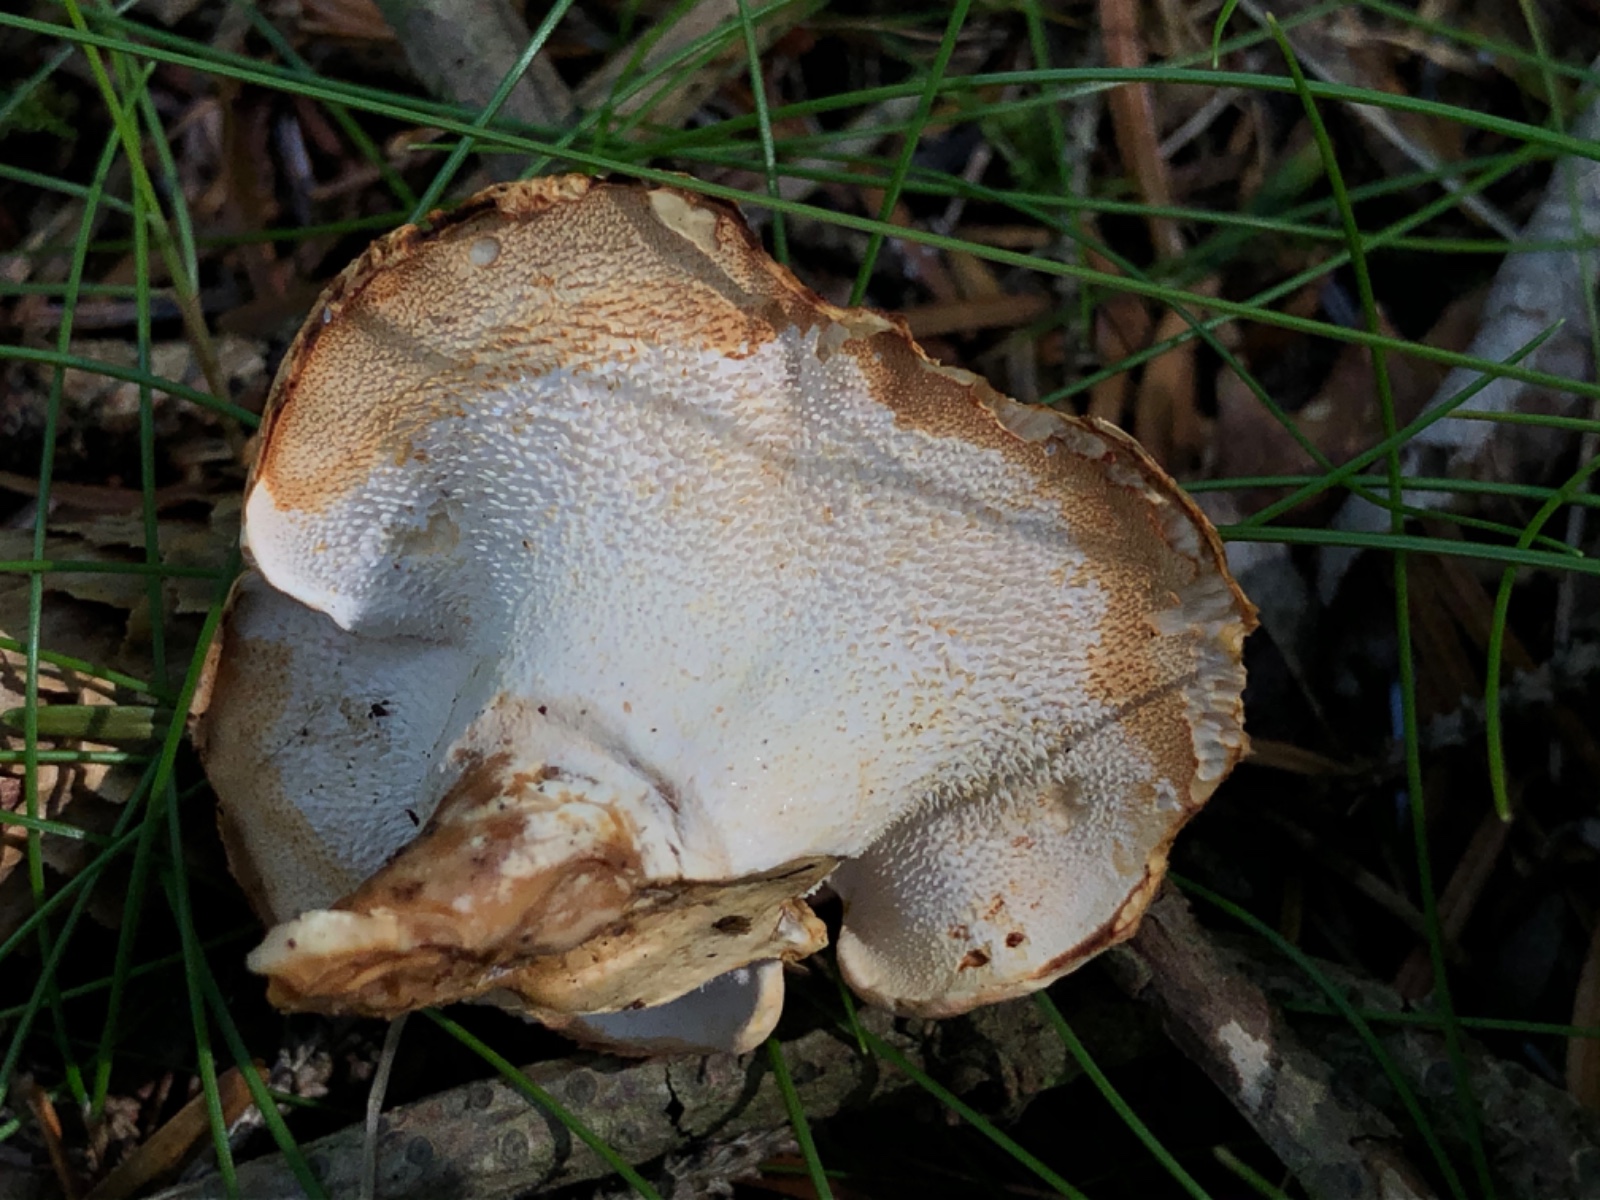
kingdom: Fungi
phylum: Basidiomycota
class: Agaricomycetes
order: Cantharellales
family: Hydnaceae
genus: Hydnum
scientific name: Hydnum
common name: pigsvamp
